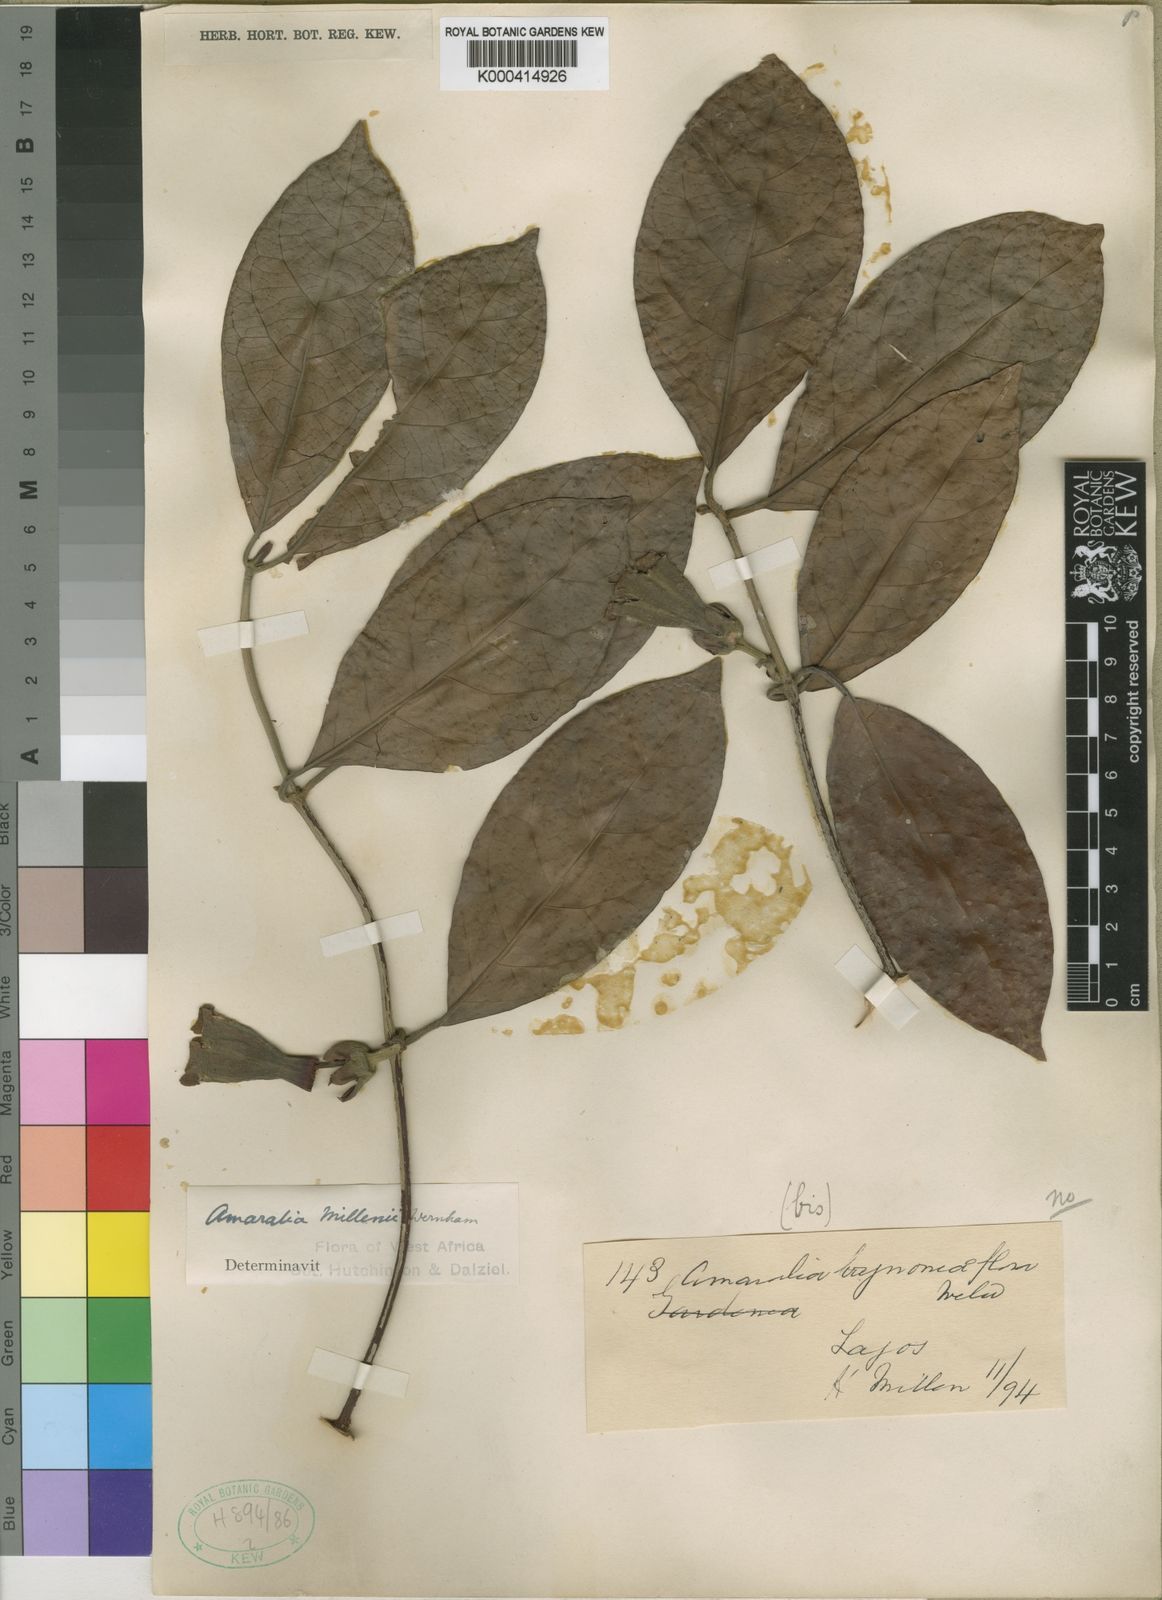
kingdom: Plantae
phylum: Tracheophyta
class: Magnoliopsida
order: Gentianales
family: Rubiaceae
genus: Sherbournia
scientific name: Sherbournia millenii
